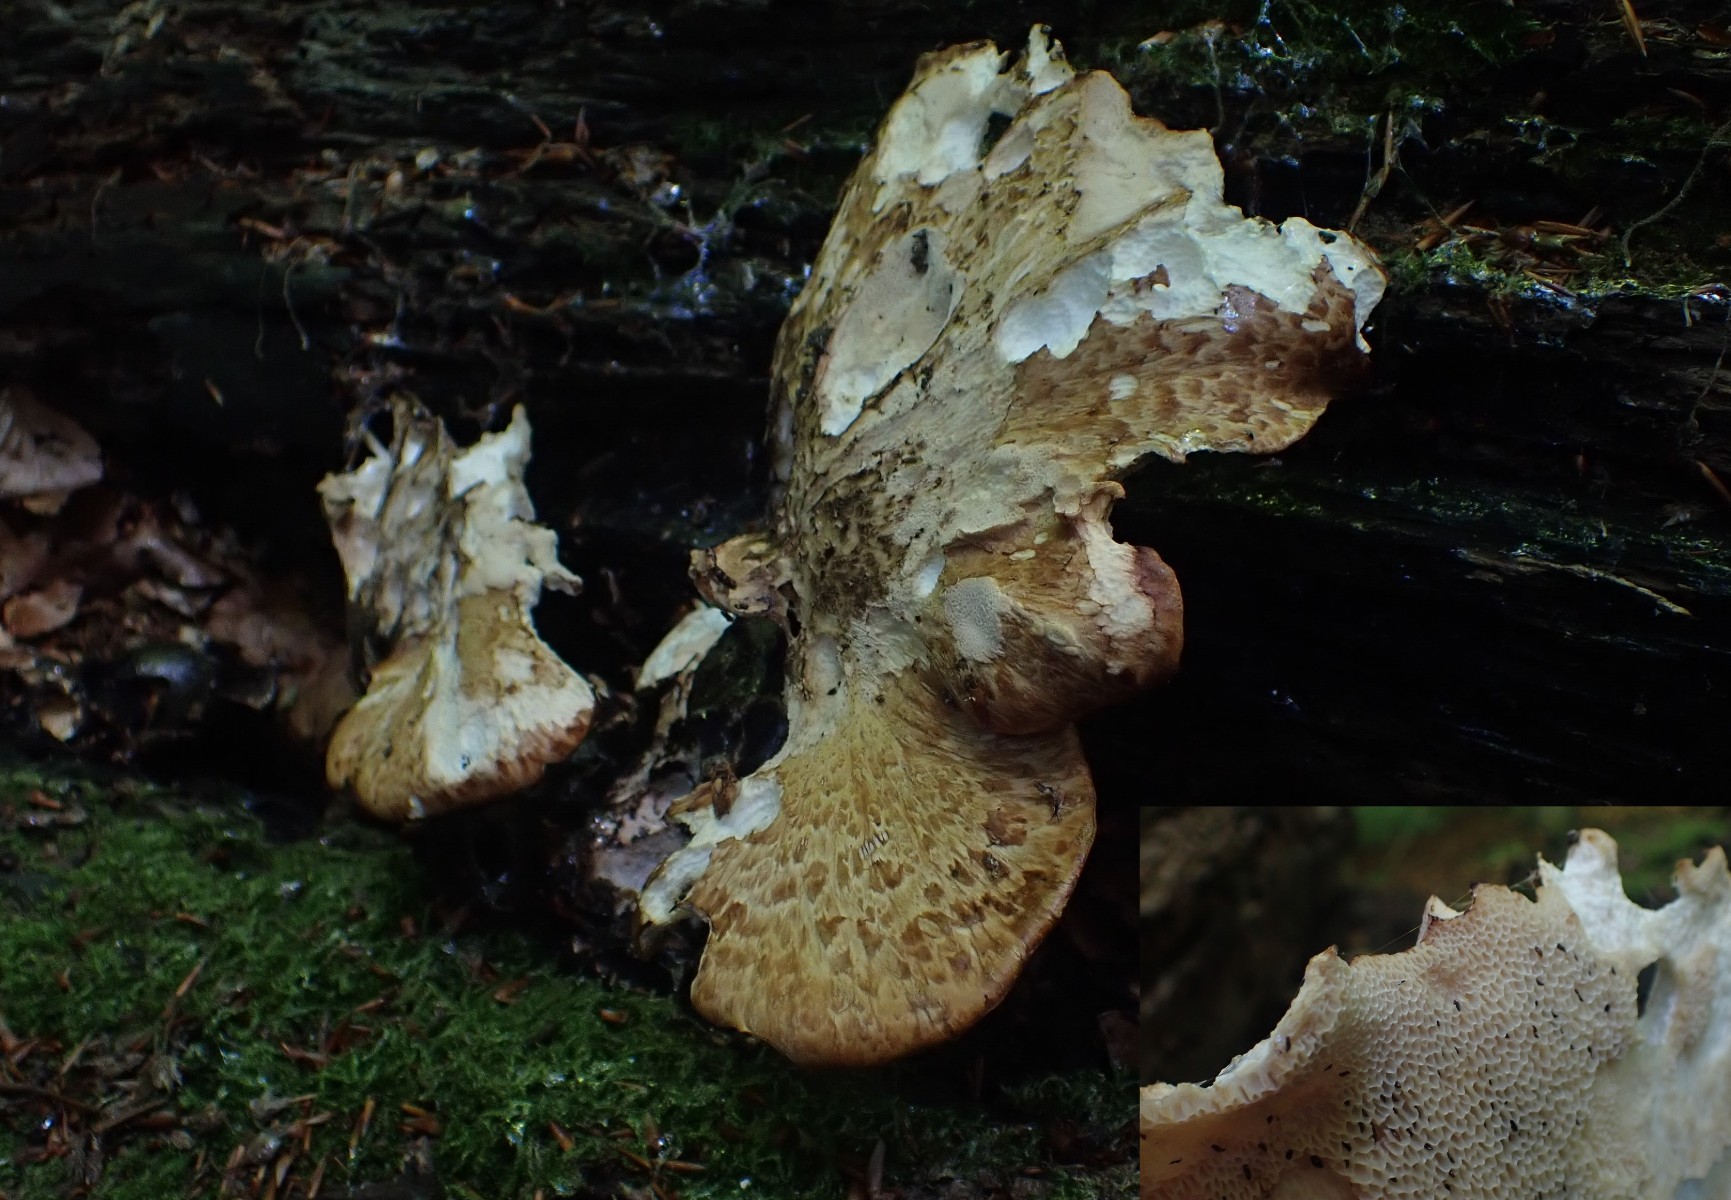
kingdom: Fungi
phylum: Basidiomycota
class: Agaricomycetes
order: Polyporales
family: Polyporaceae
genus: Cerioporus
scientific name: Cerioporus squamosus
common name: skællet stilkporesvamp
